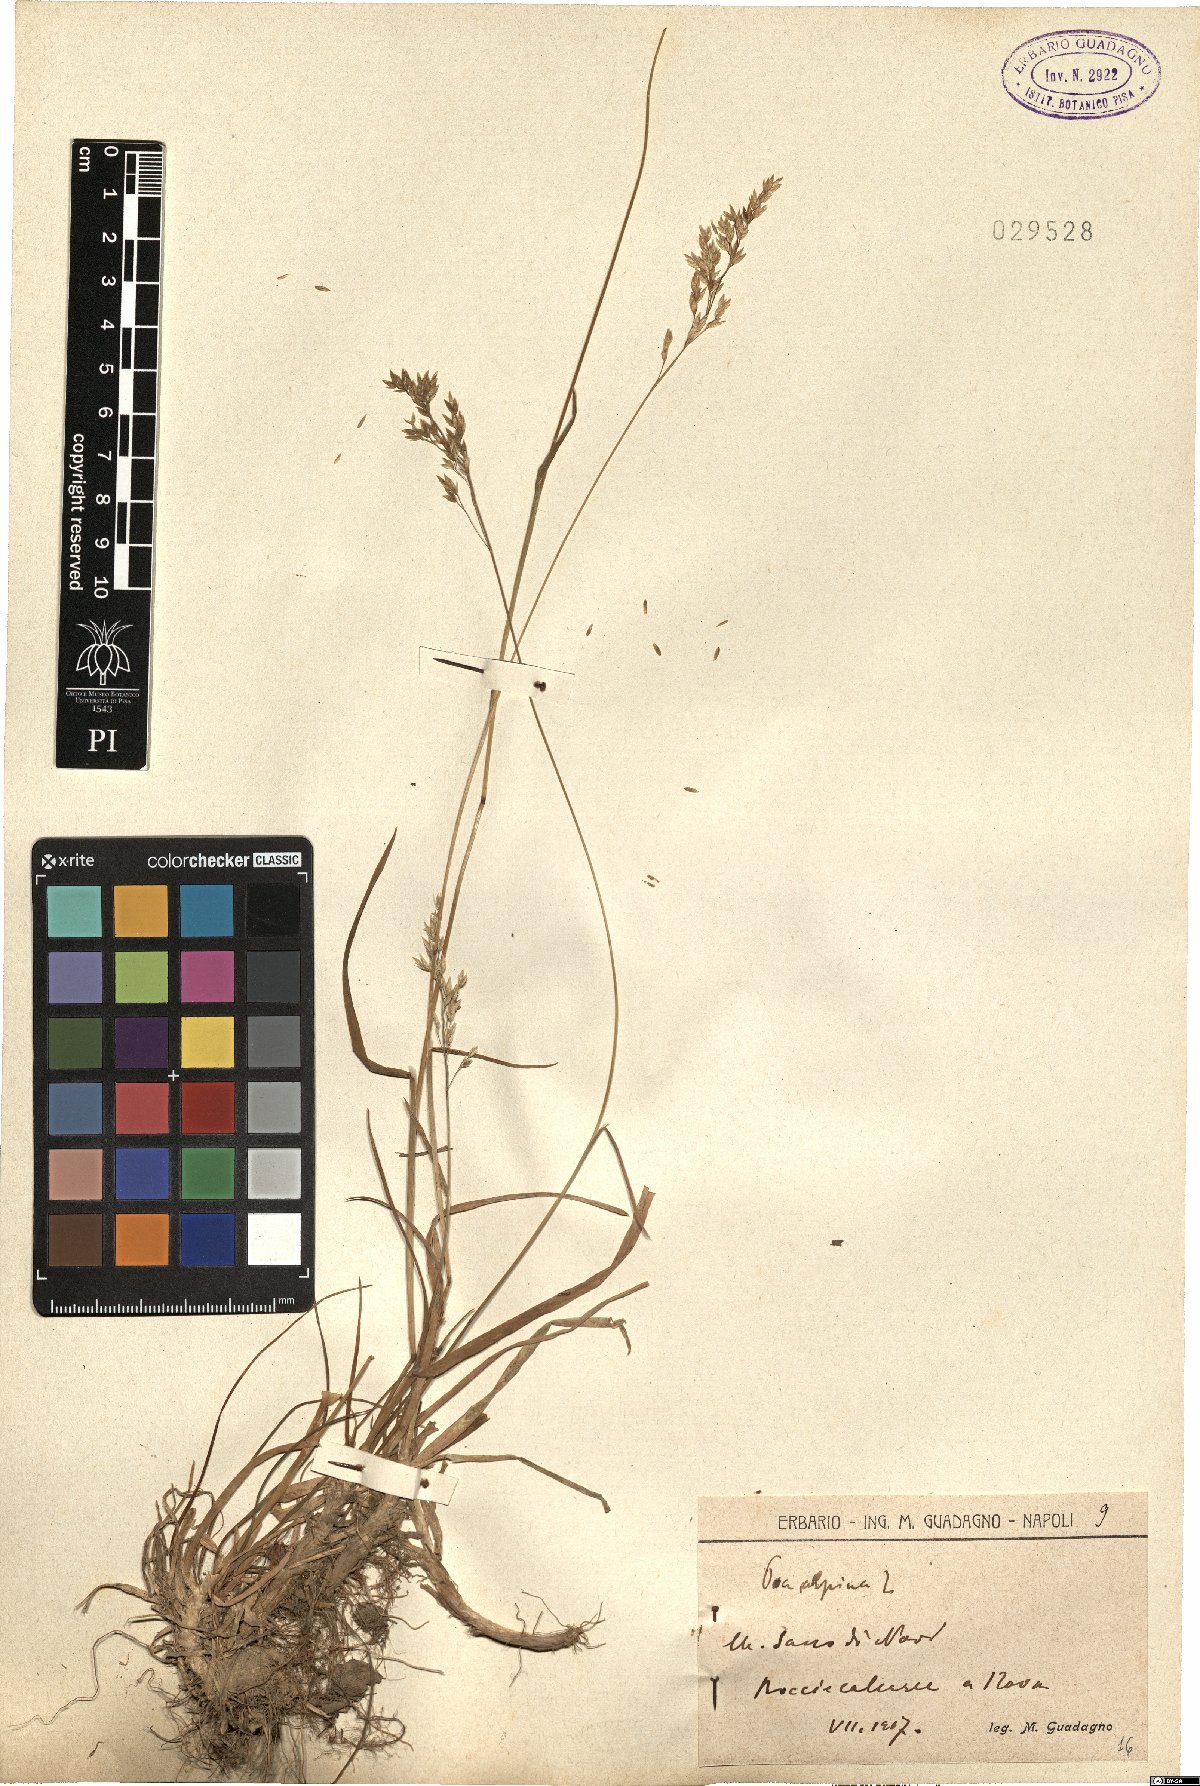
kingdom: Plantae
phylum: Tracheophyta
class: Liliopsida
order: Poales
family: Poaceae
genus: Poa
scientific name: Poa alpina
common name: Alpine bluegrass
